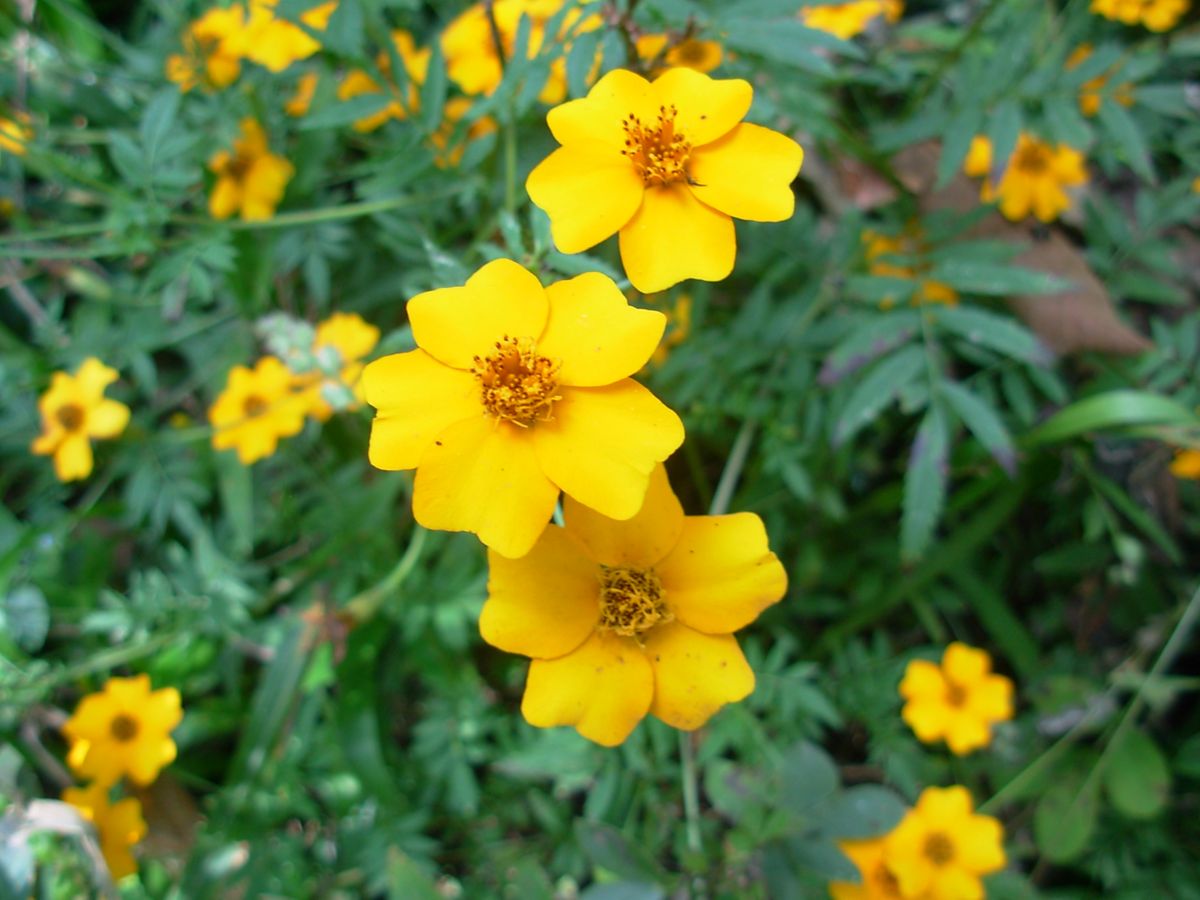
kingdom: Plantae
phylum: Tracheophyta
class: Magnoliopsida
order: Asterales
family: Asteraceae
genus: Tagetes
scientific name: Tagetes tenuifolia
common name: Signet marigold
